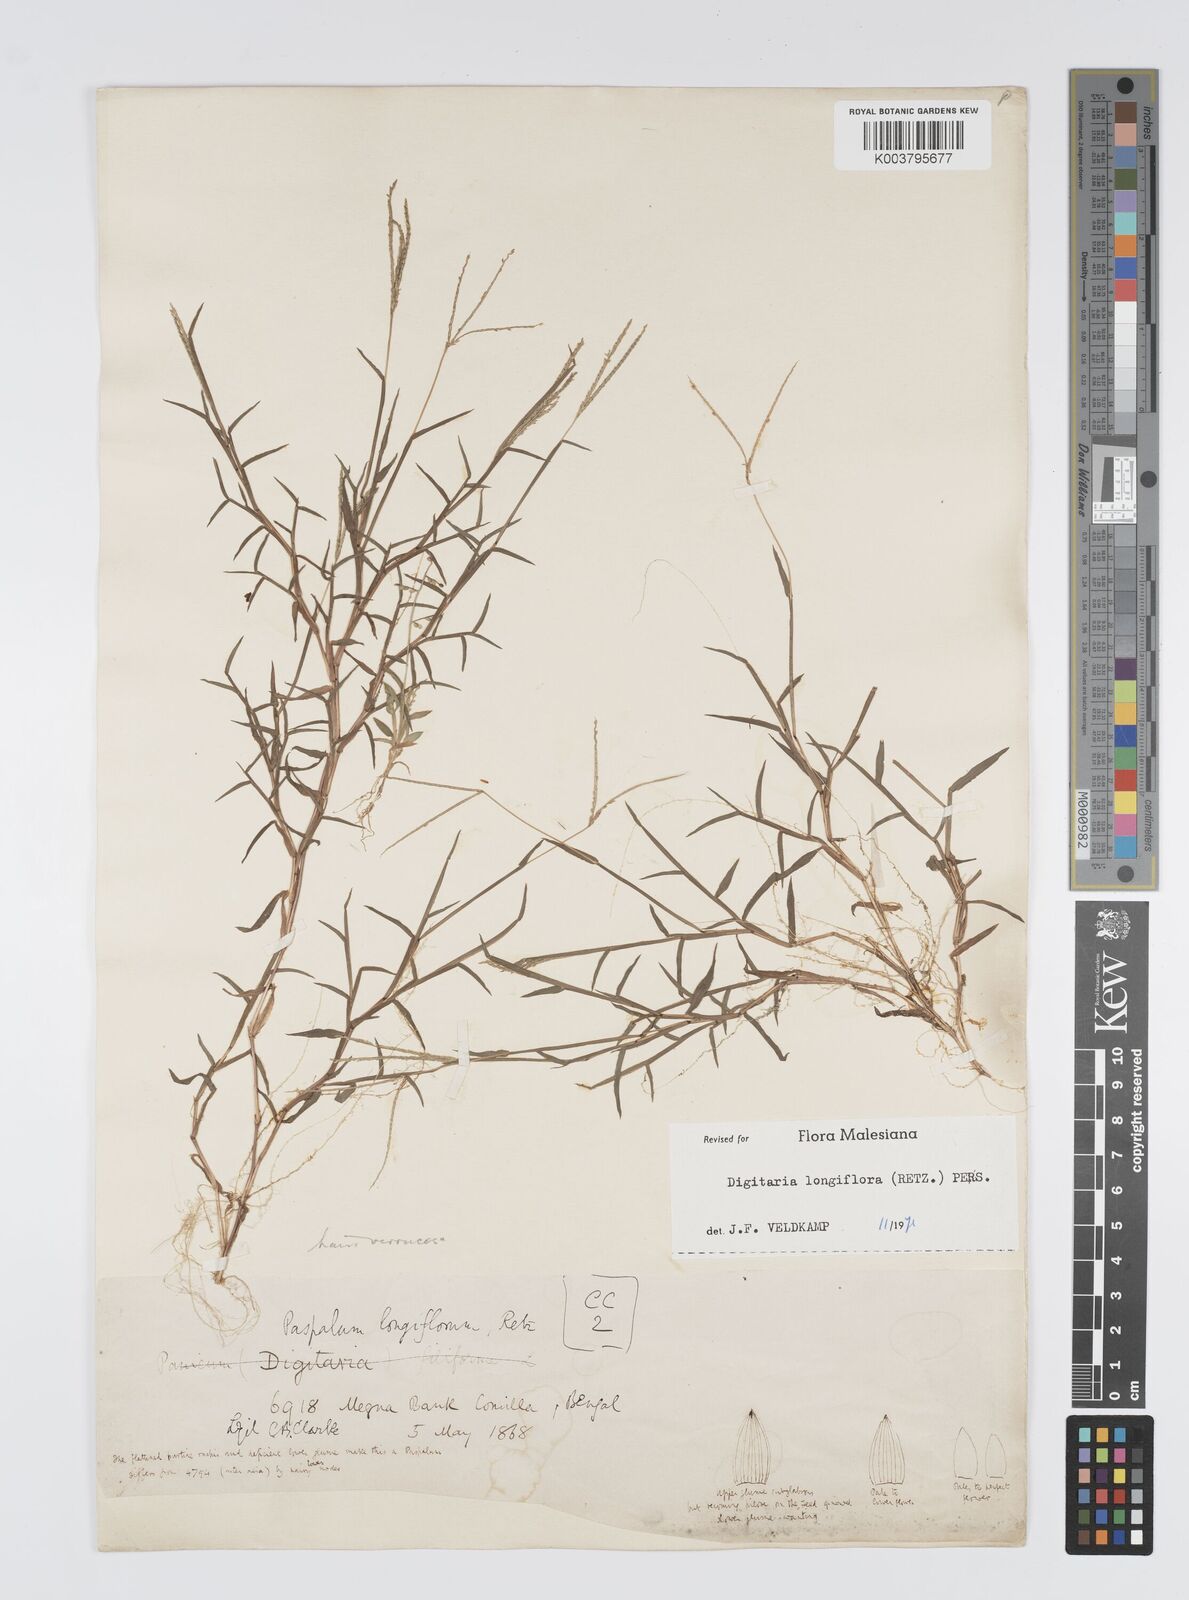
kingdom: Plantae
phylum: Tracheophyta
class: Liliopsida
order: Poales
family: Poaceae
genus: Digitaria
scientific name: Digitaria longiflora
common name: Wire crabgrass
